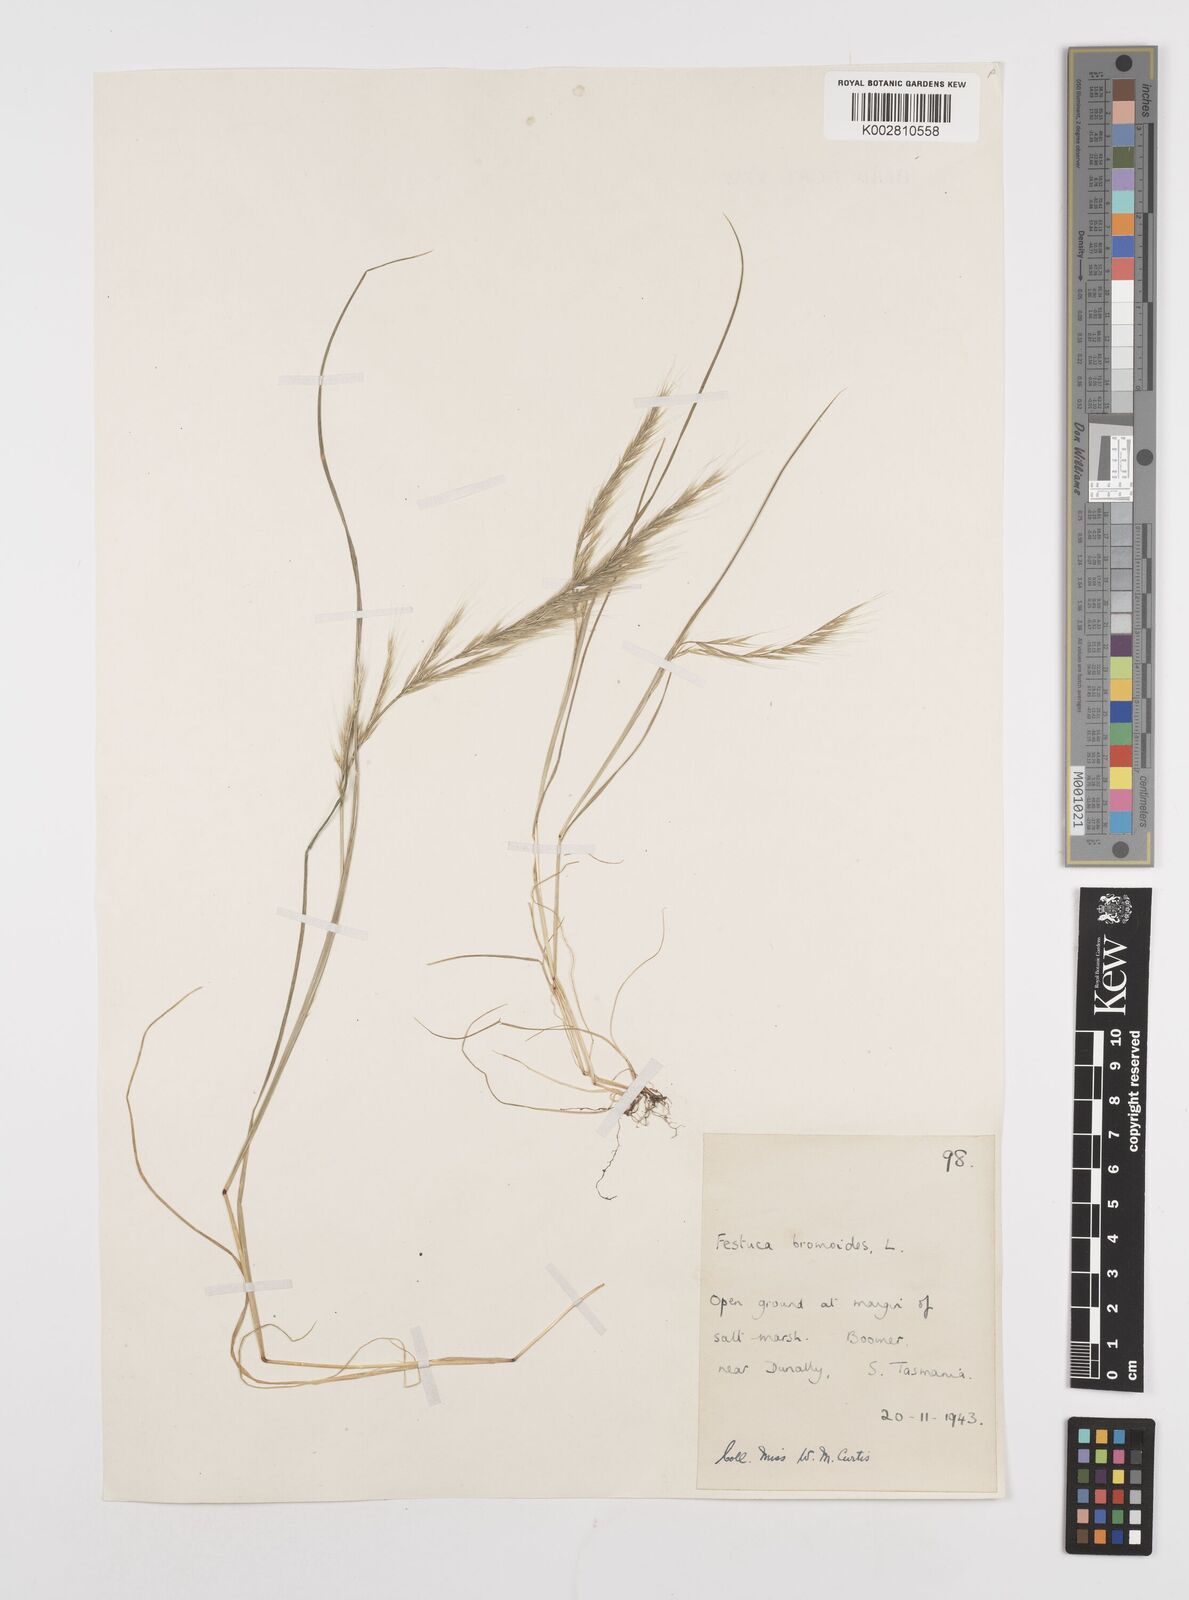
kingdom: Plantae
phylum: Tracheophyta
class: Liliopsida
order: Poales
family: Poaceae
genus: Festuca
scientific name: Festuca myuros
